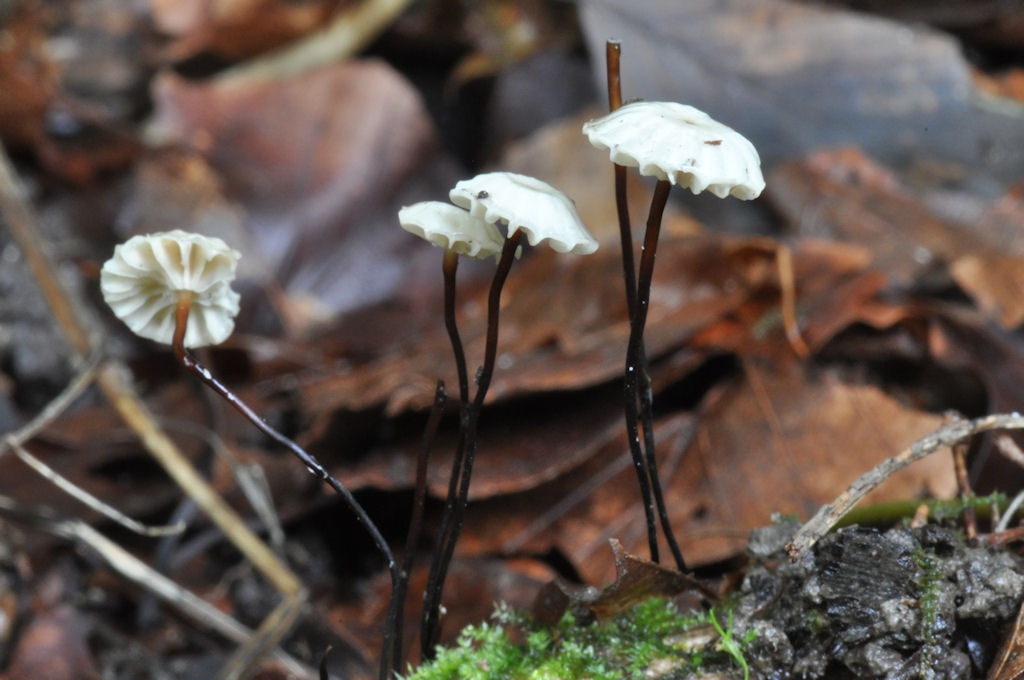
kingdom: Fungi
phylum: Basidiomycota
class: Agaricomycetes
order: Agaricales
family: Marasmiaceae
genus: Marasmius
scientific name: Marasmius rotula
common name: hjul-bruskhat
